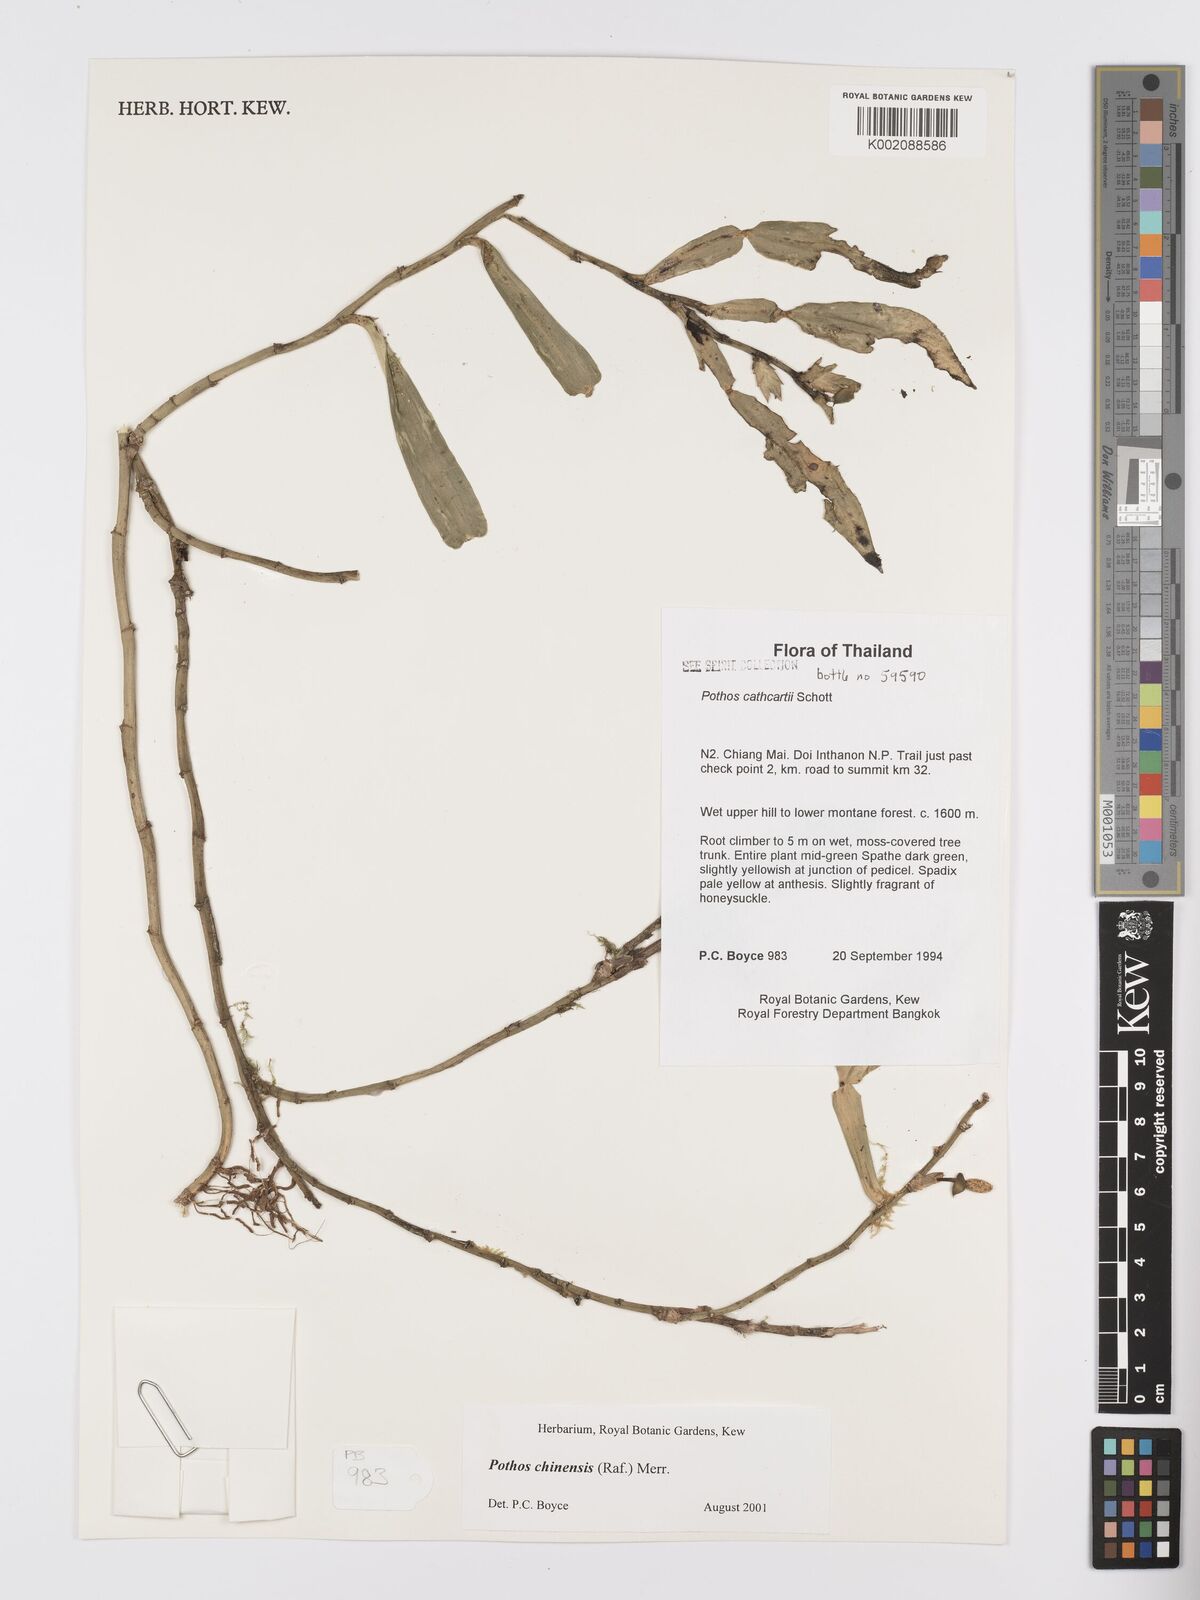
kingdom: Plantae
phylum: Tracheophyta
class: Liliopsida
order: Alismatales
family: Araceae
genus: Pothos
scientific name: Pothos chinensis
